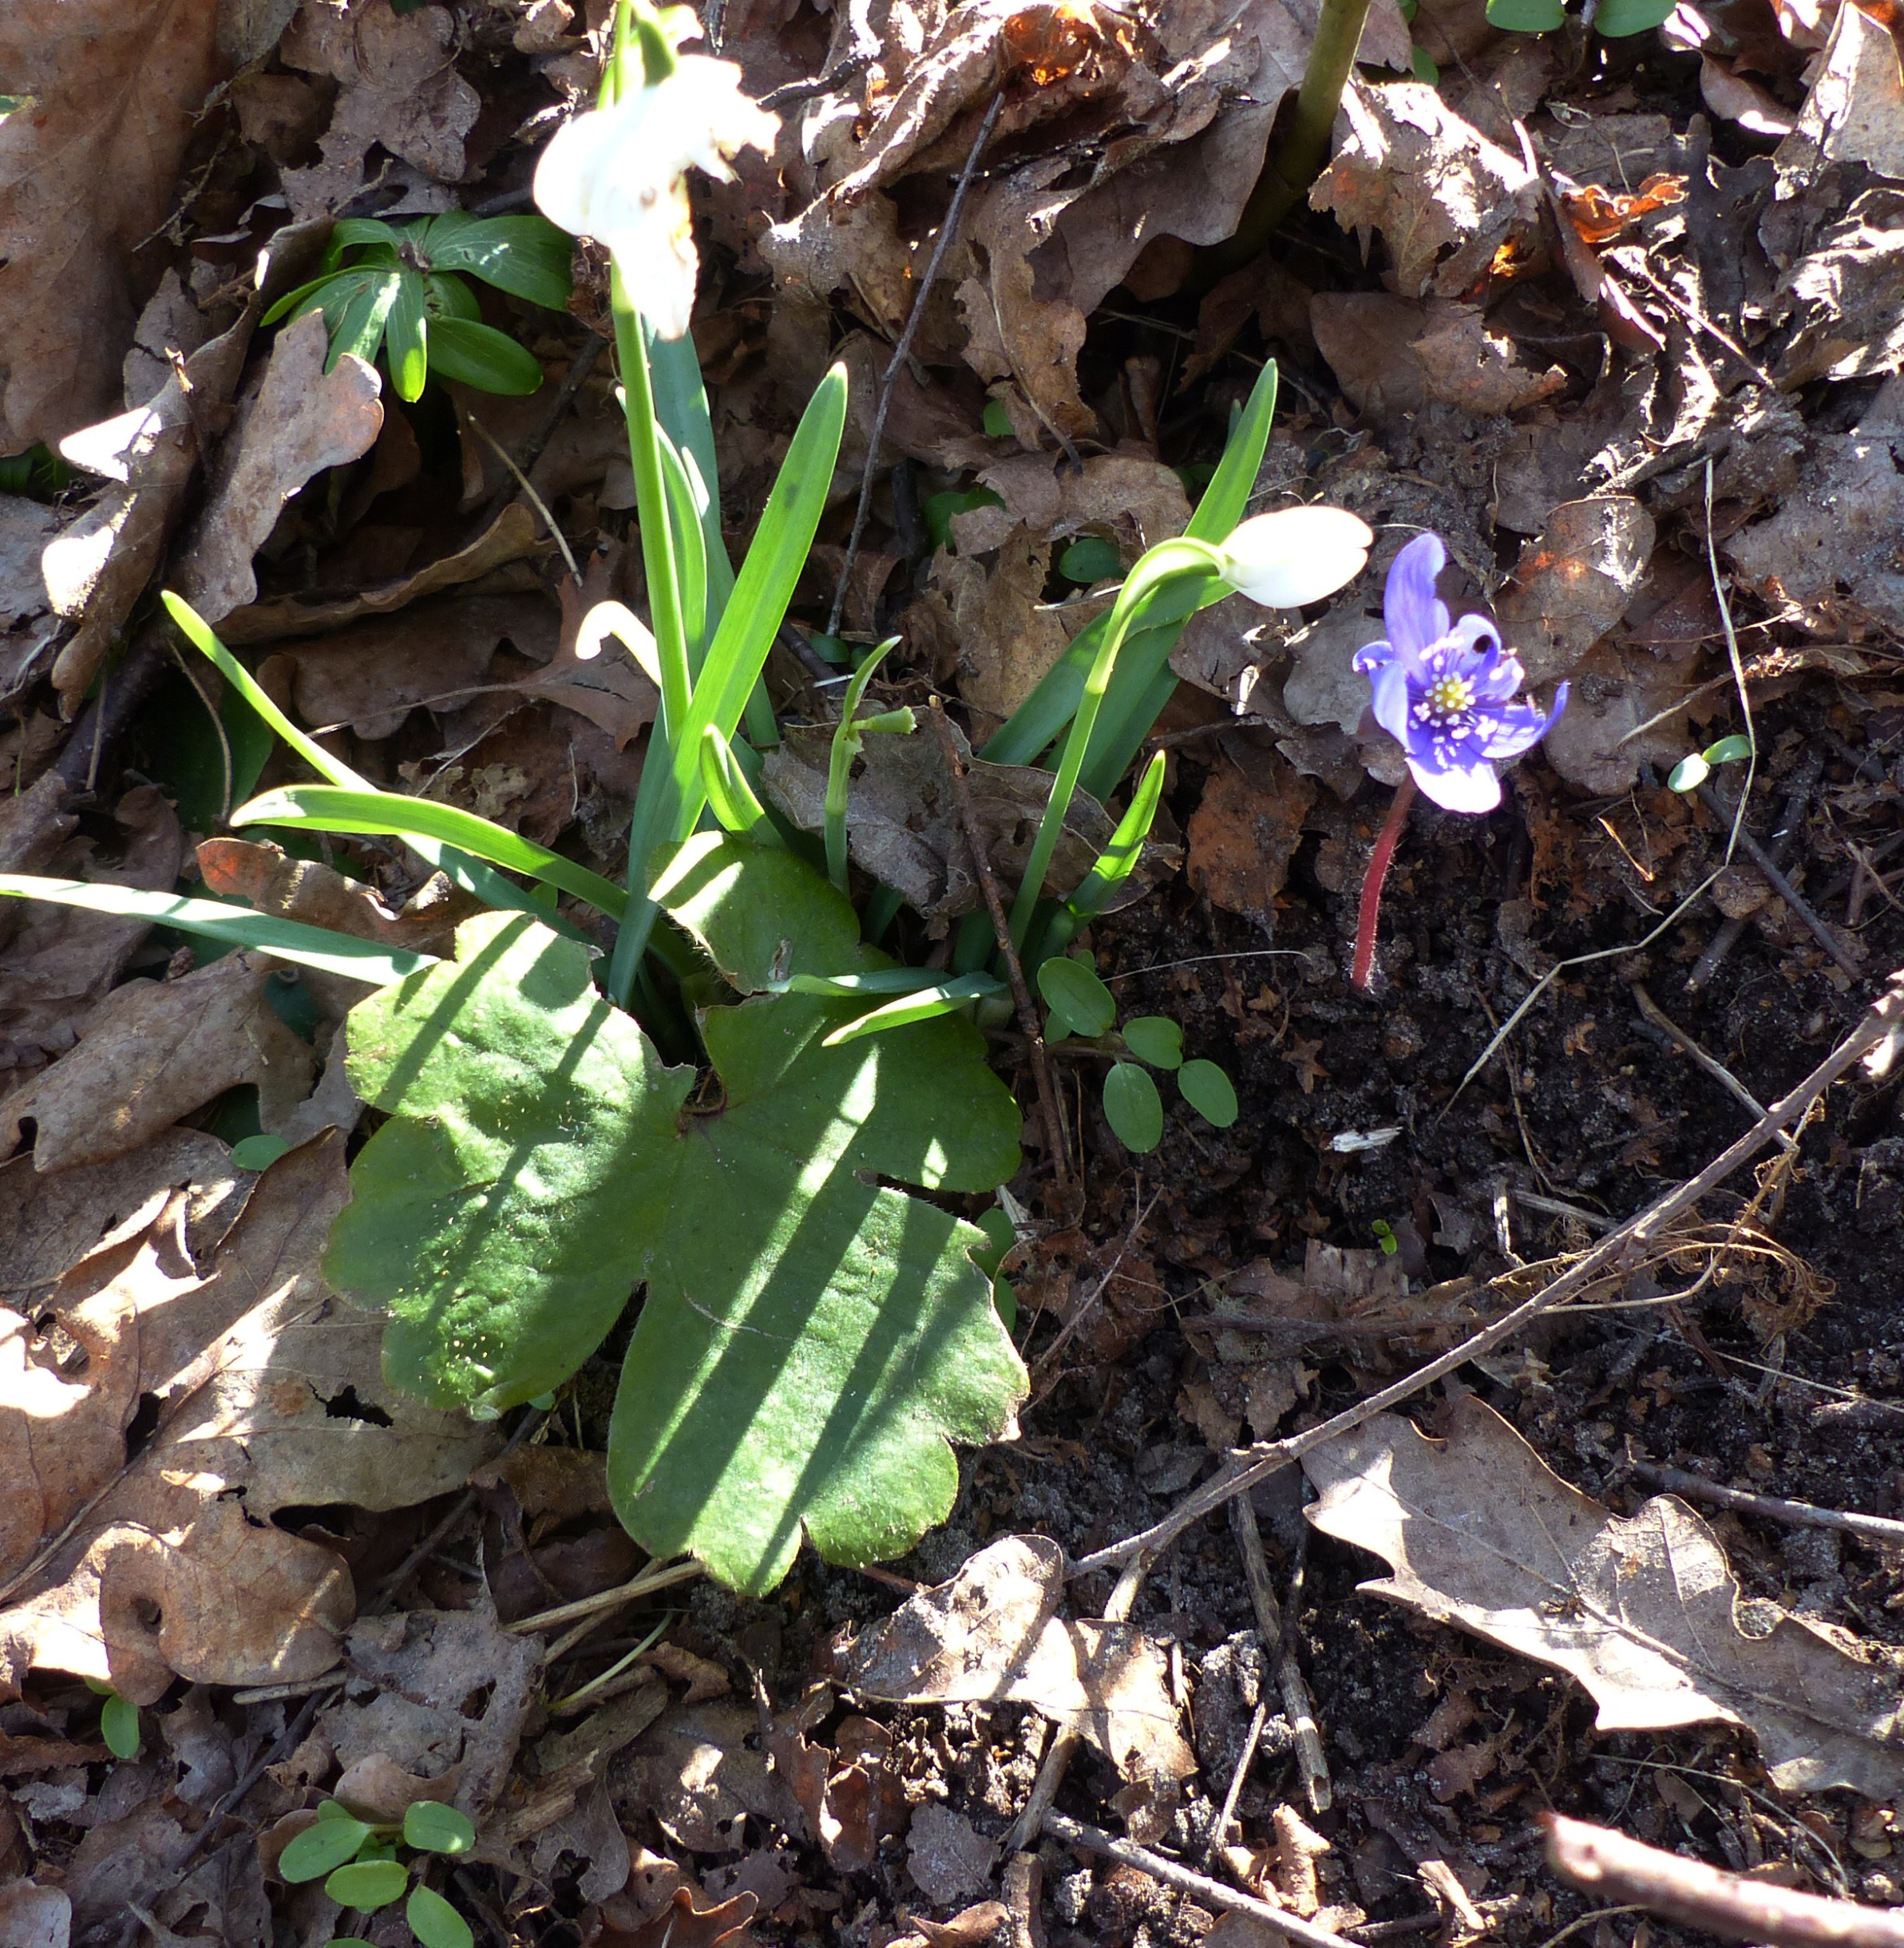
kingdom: Plantae
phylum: Tracheophyta
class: Magnoliopsida
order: Ranunculales
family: Ranunculaceae
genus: Hepatica
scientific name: Hepatica transsilvanica
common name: Ungarsk anemone
